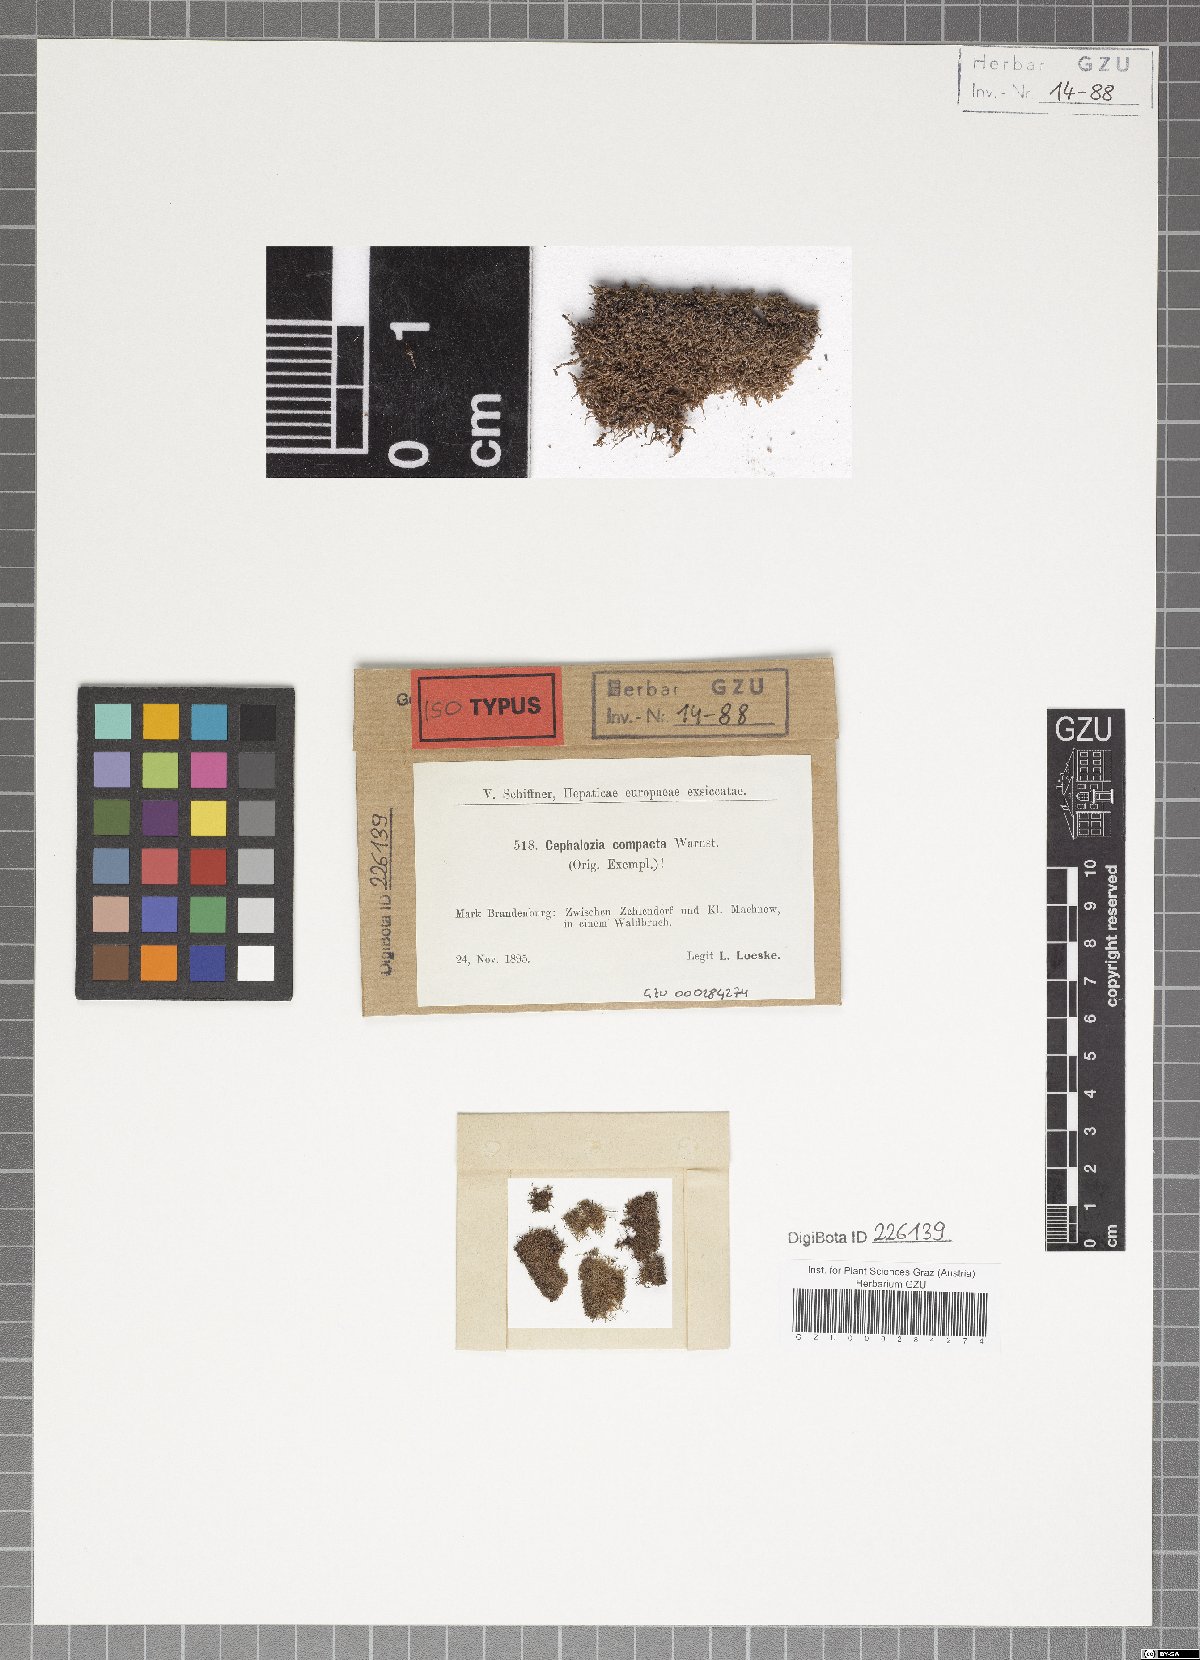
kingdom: Plantae
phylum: Marchantiophyta
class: Jungermanniopsida
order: Jungermanniales
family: Cephaloziaceae
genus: Fuscocephaloziopsis
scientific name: Fuscocephaloziopsis connivens
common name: Forcipated pincerwort
